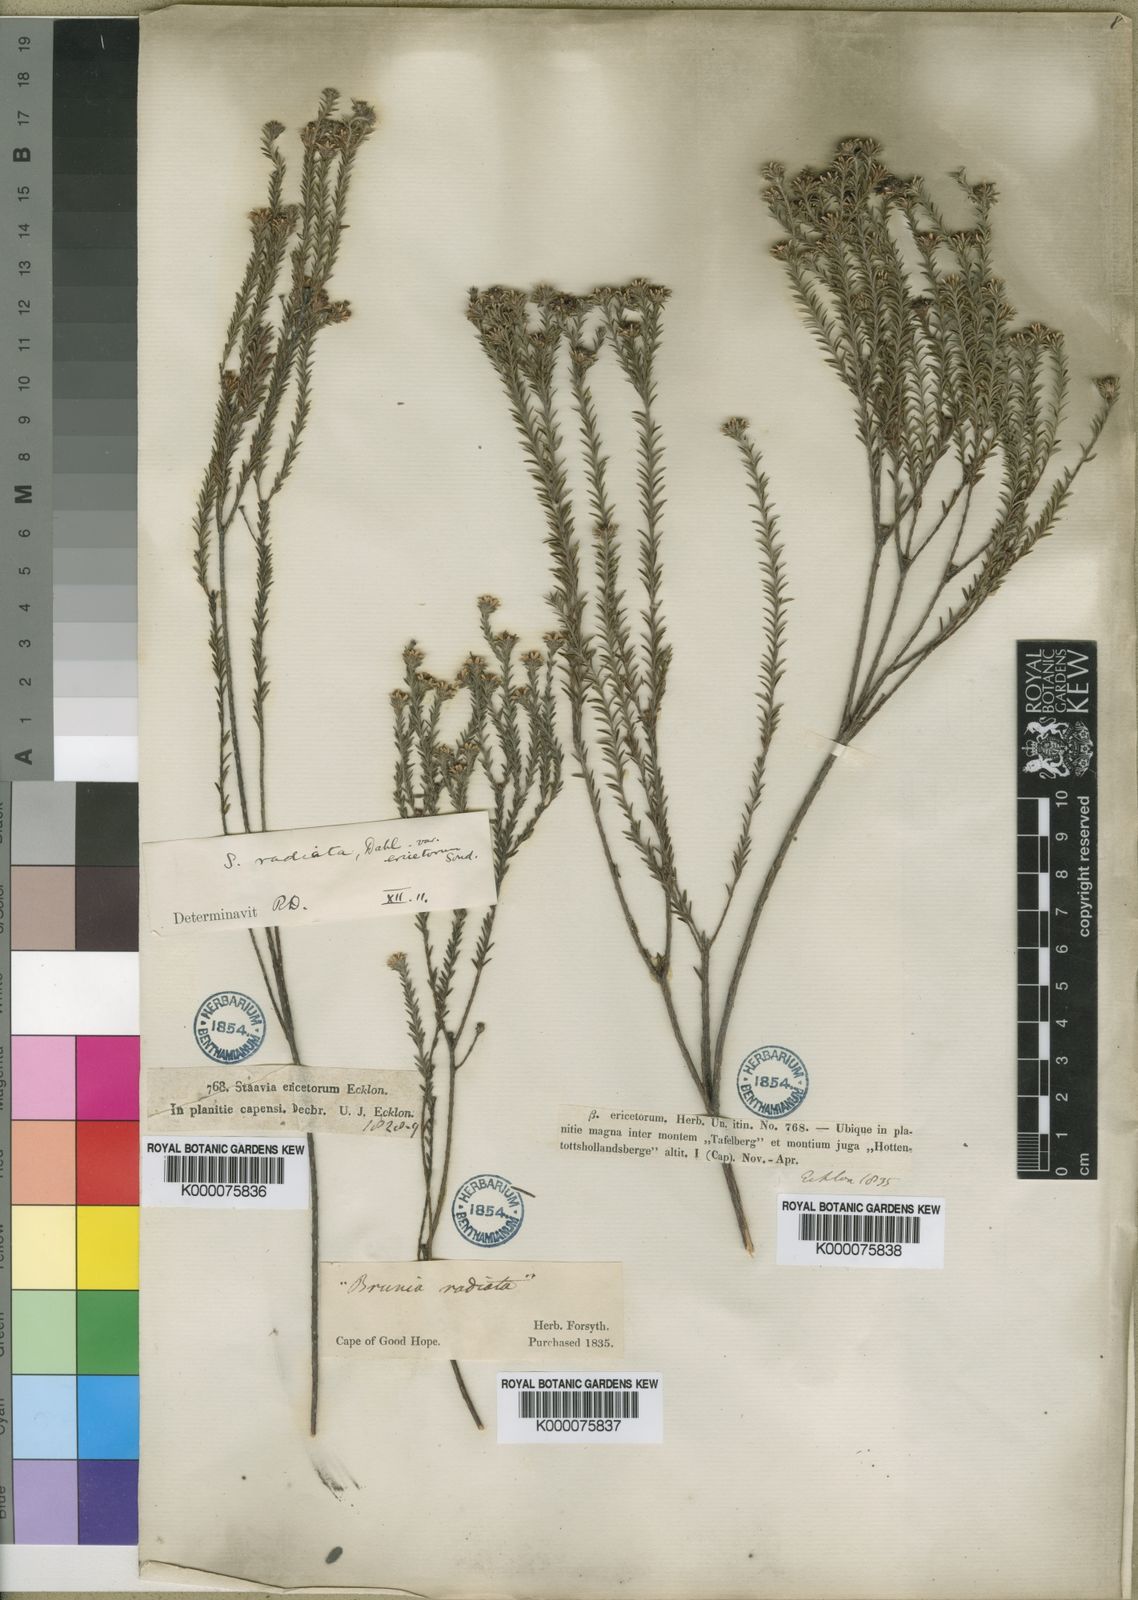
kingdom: Plantae
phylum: Tracheophyta
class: Magnoliopsida
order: Bruniales
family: Bruniaceae
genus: Staavia
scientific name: Staavia radiata
